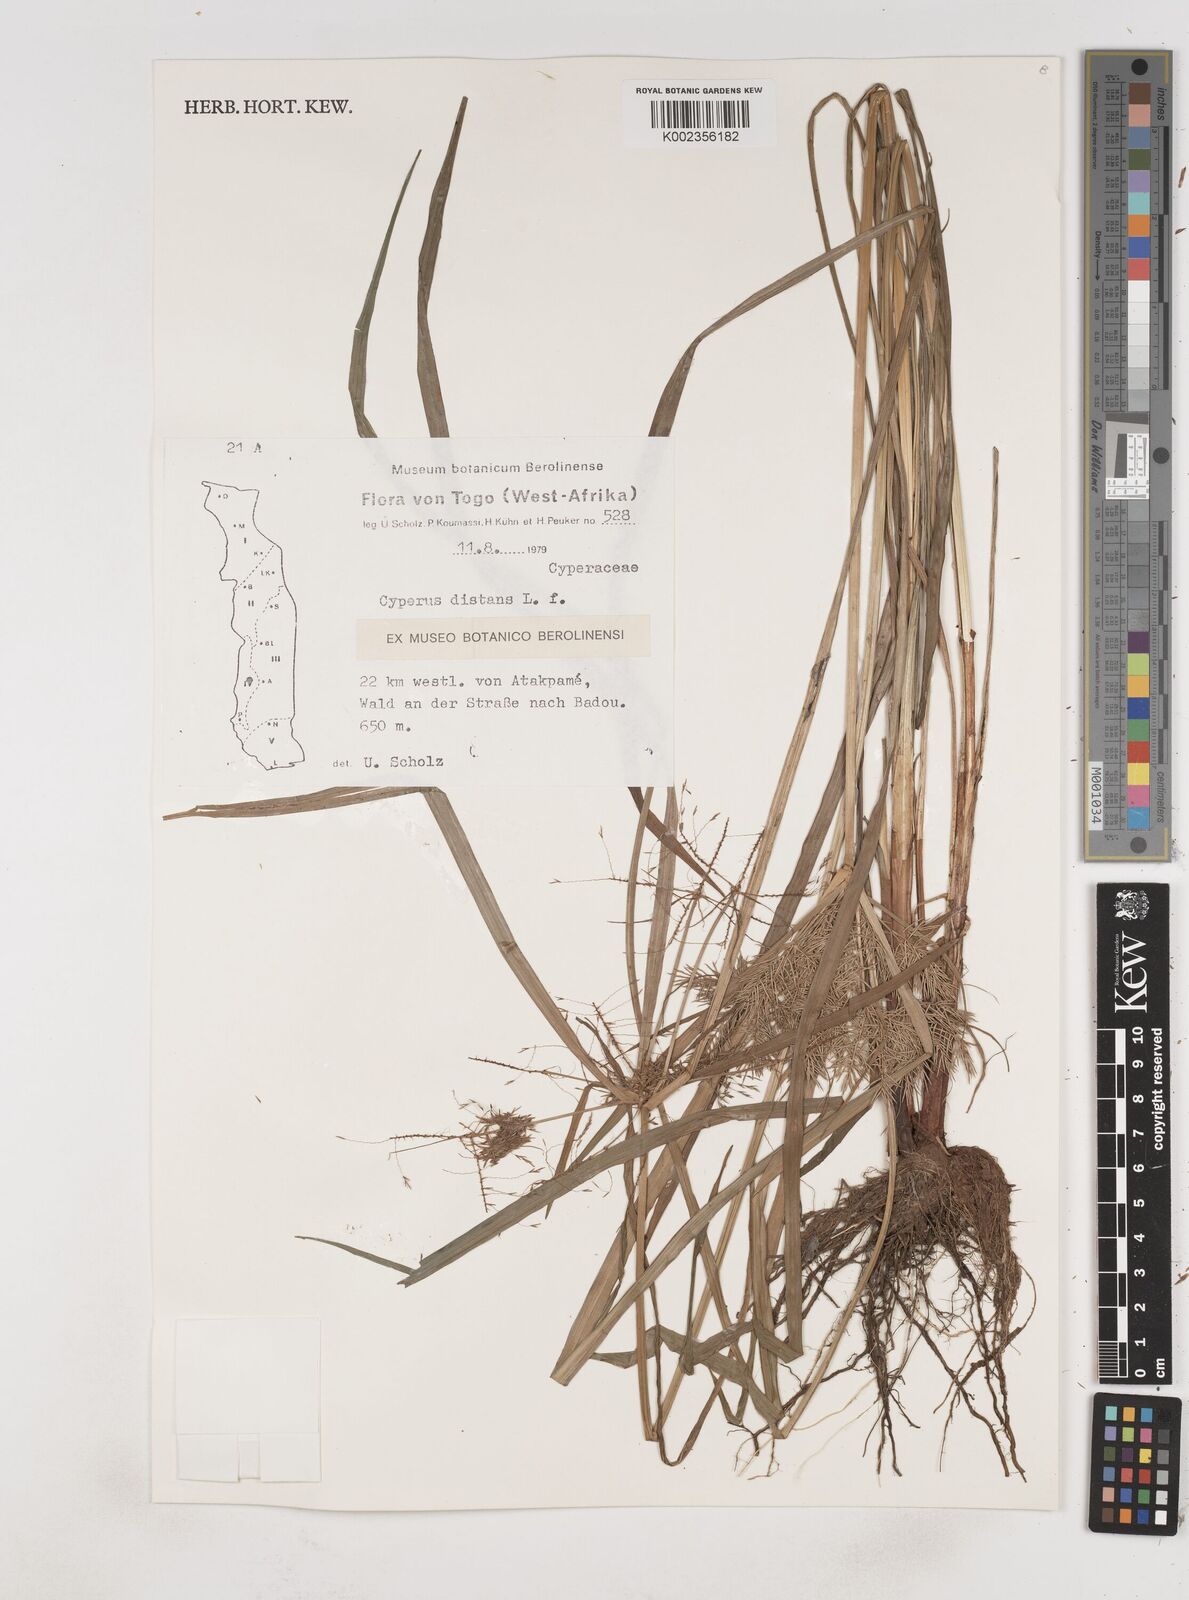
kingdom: Plantae
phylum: Tracheophyta
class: Liliopsida
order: Poales
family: Cyperaceae
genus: Cyperus
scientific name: Cyperus distans
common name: Slender cyperus
